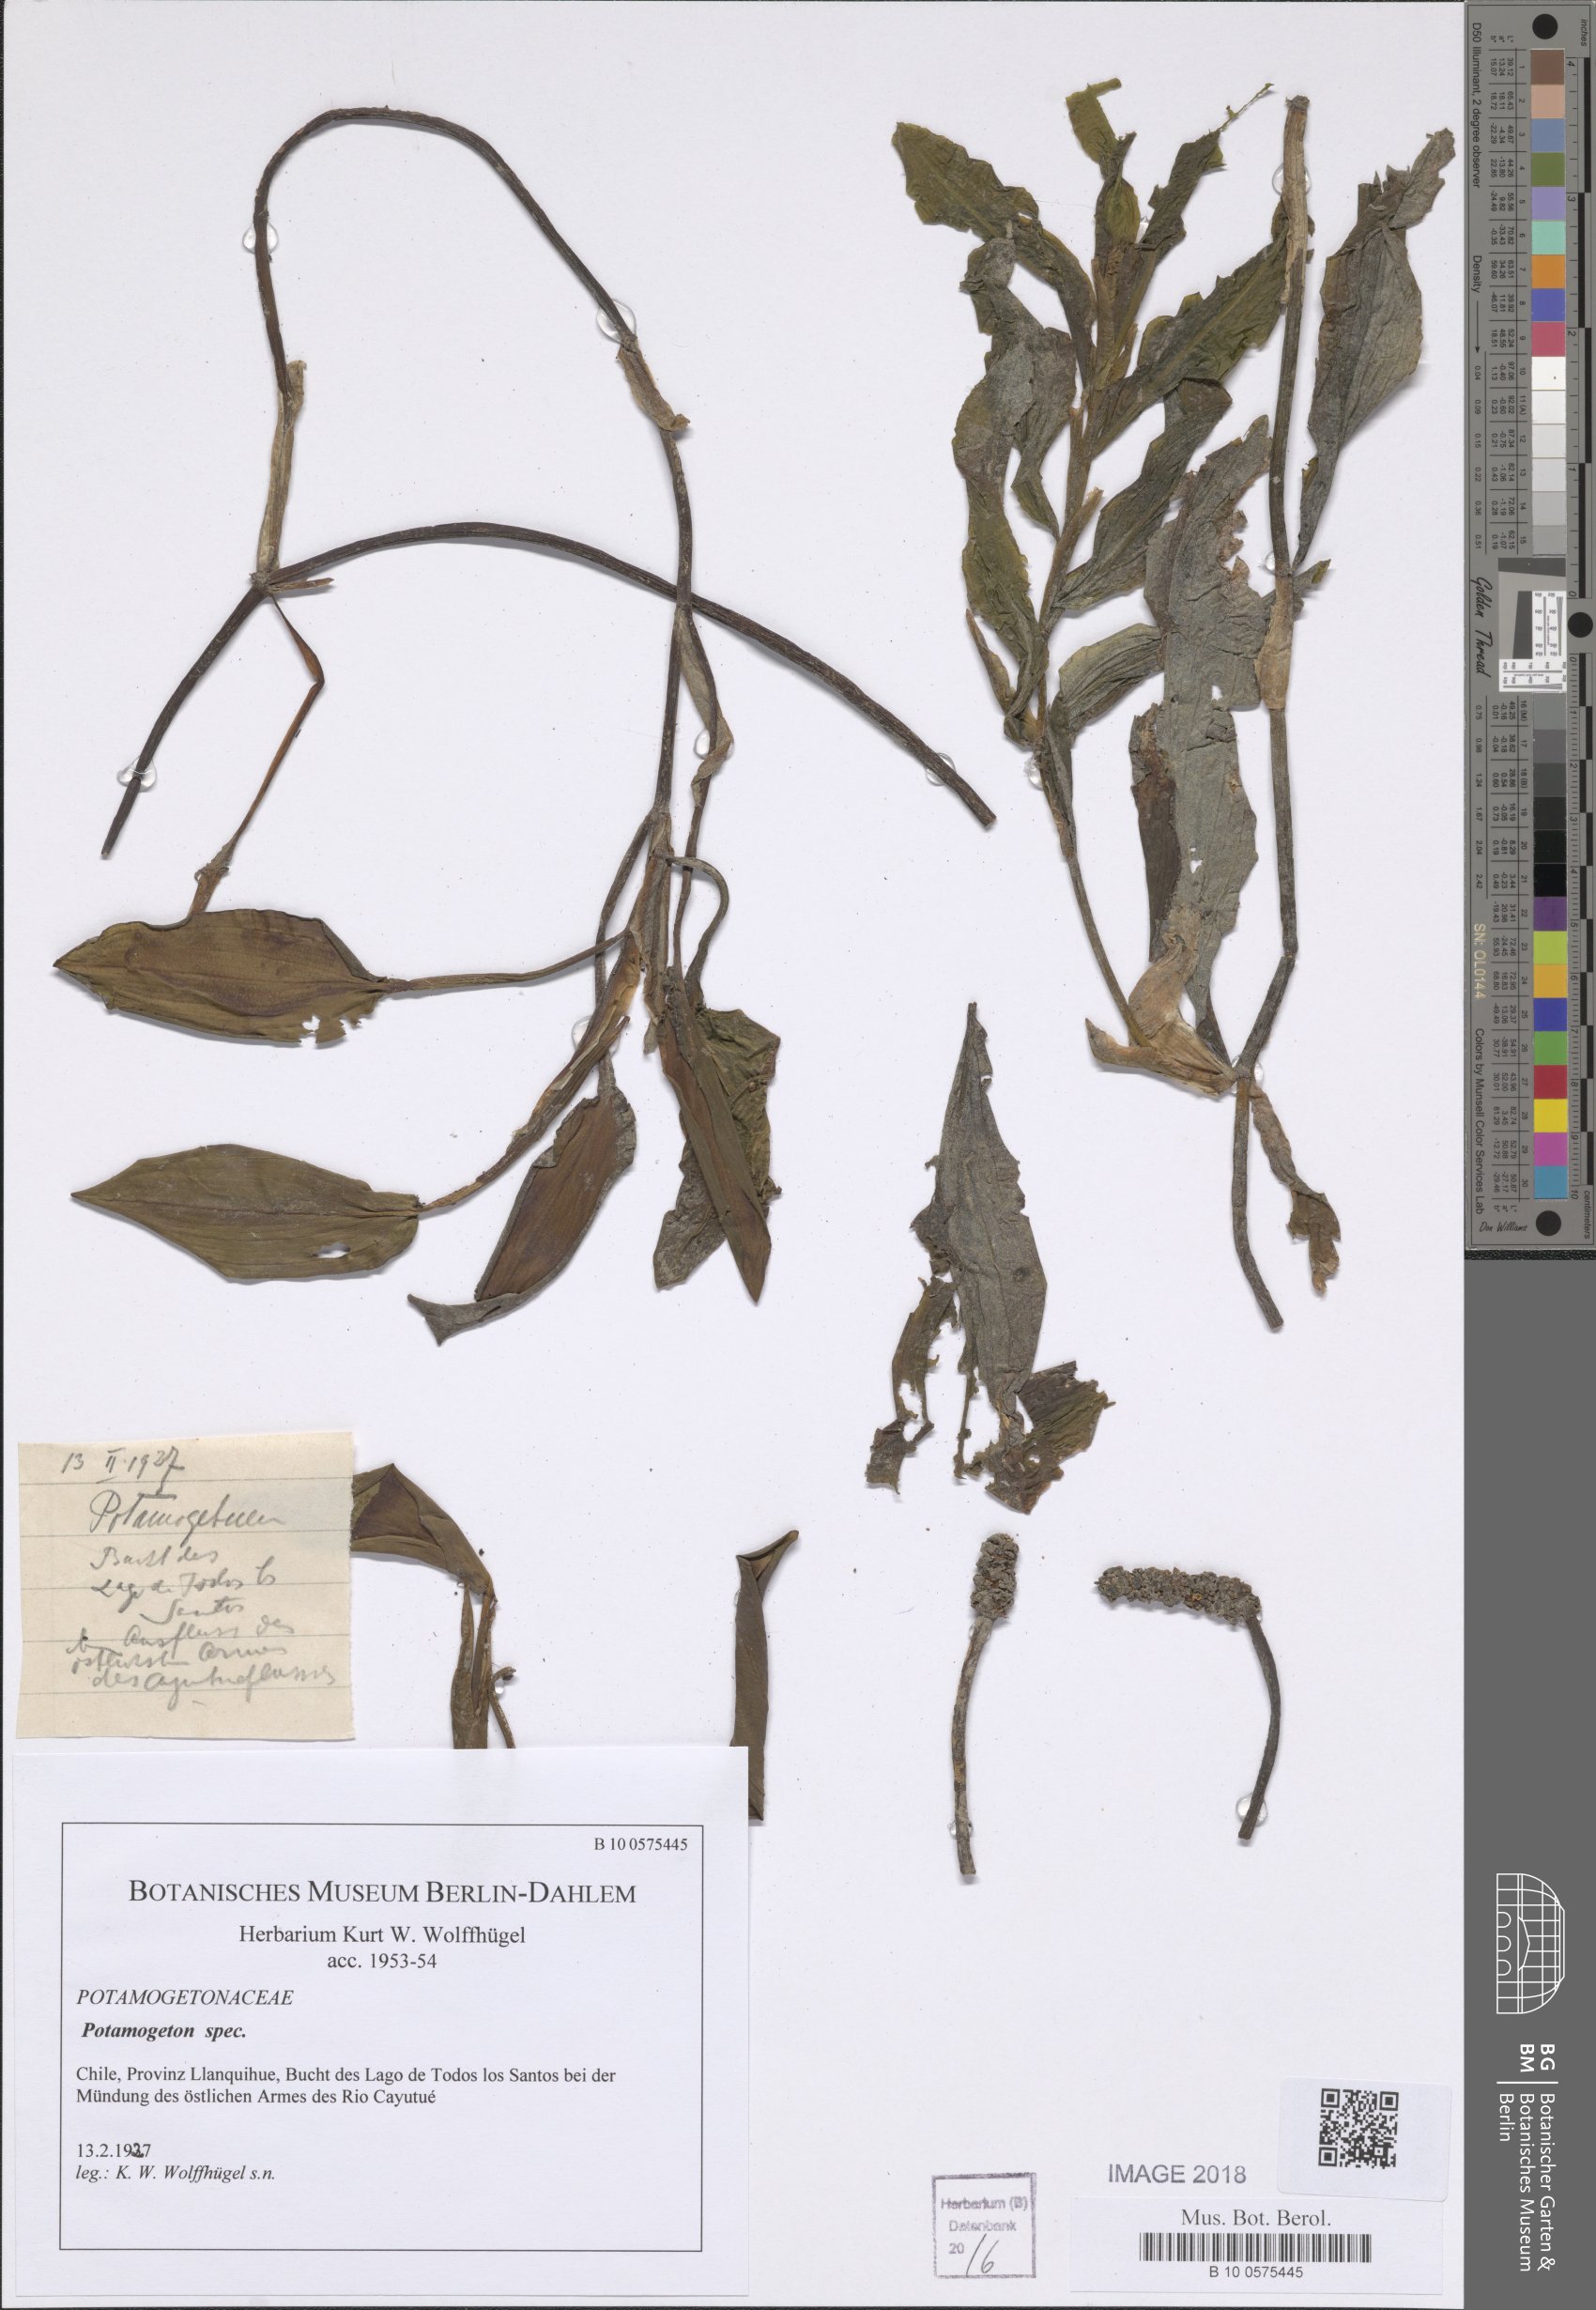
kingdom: Plantae
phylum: Tracheophyta
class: Liliopsida
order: Alismatales
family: Potamogetonaceae
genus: Potamogeton
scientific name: Potamogeton linguatus
